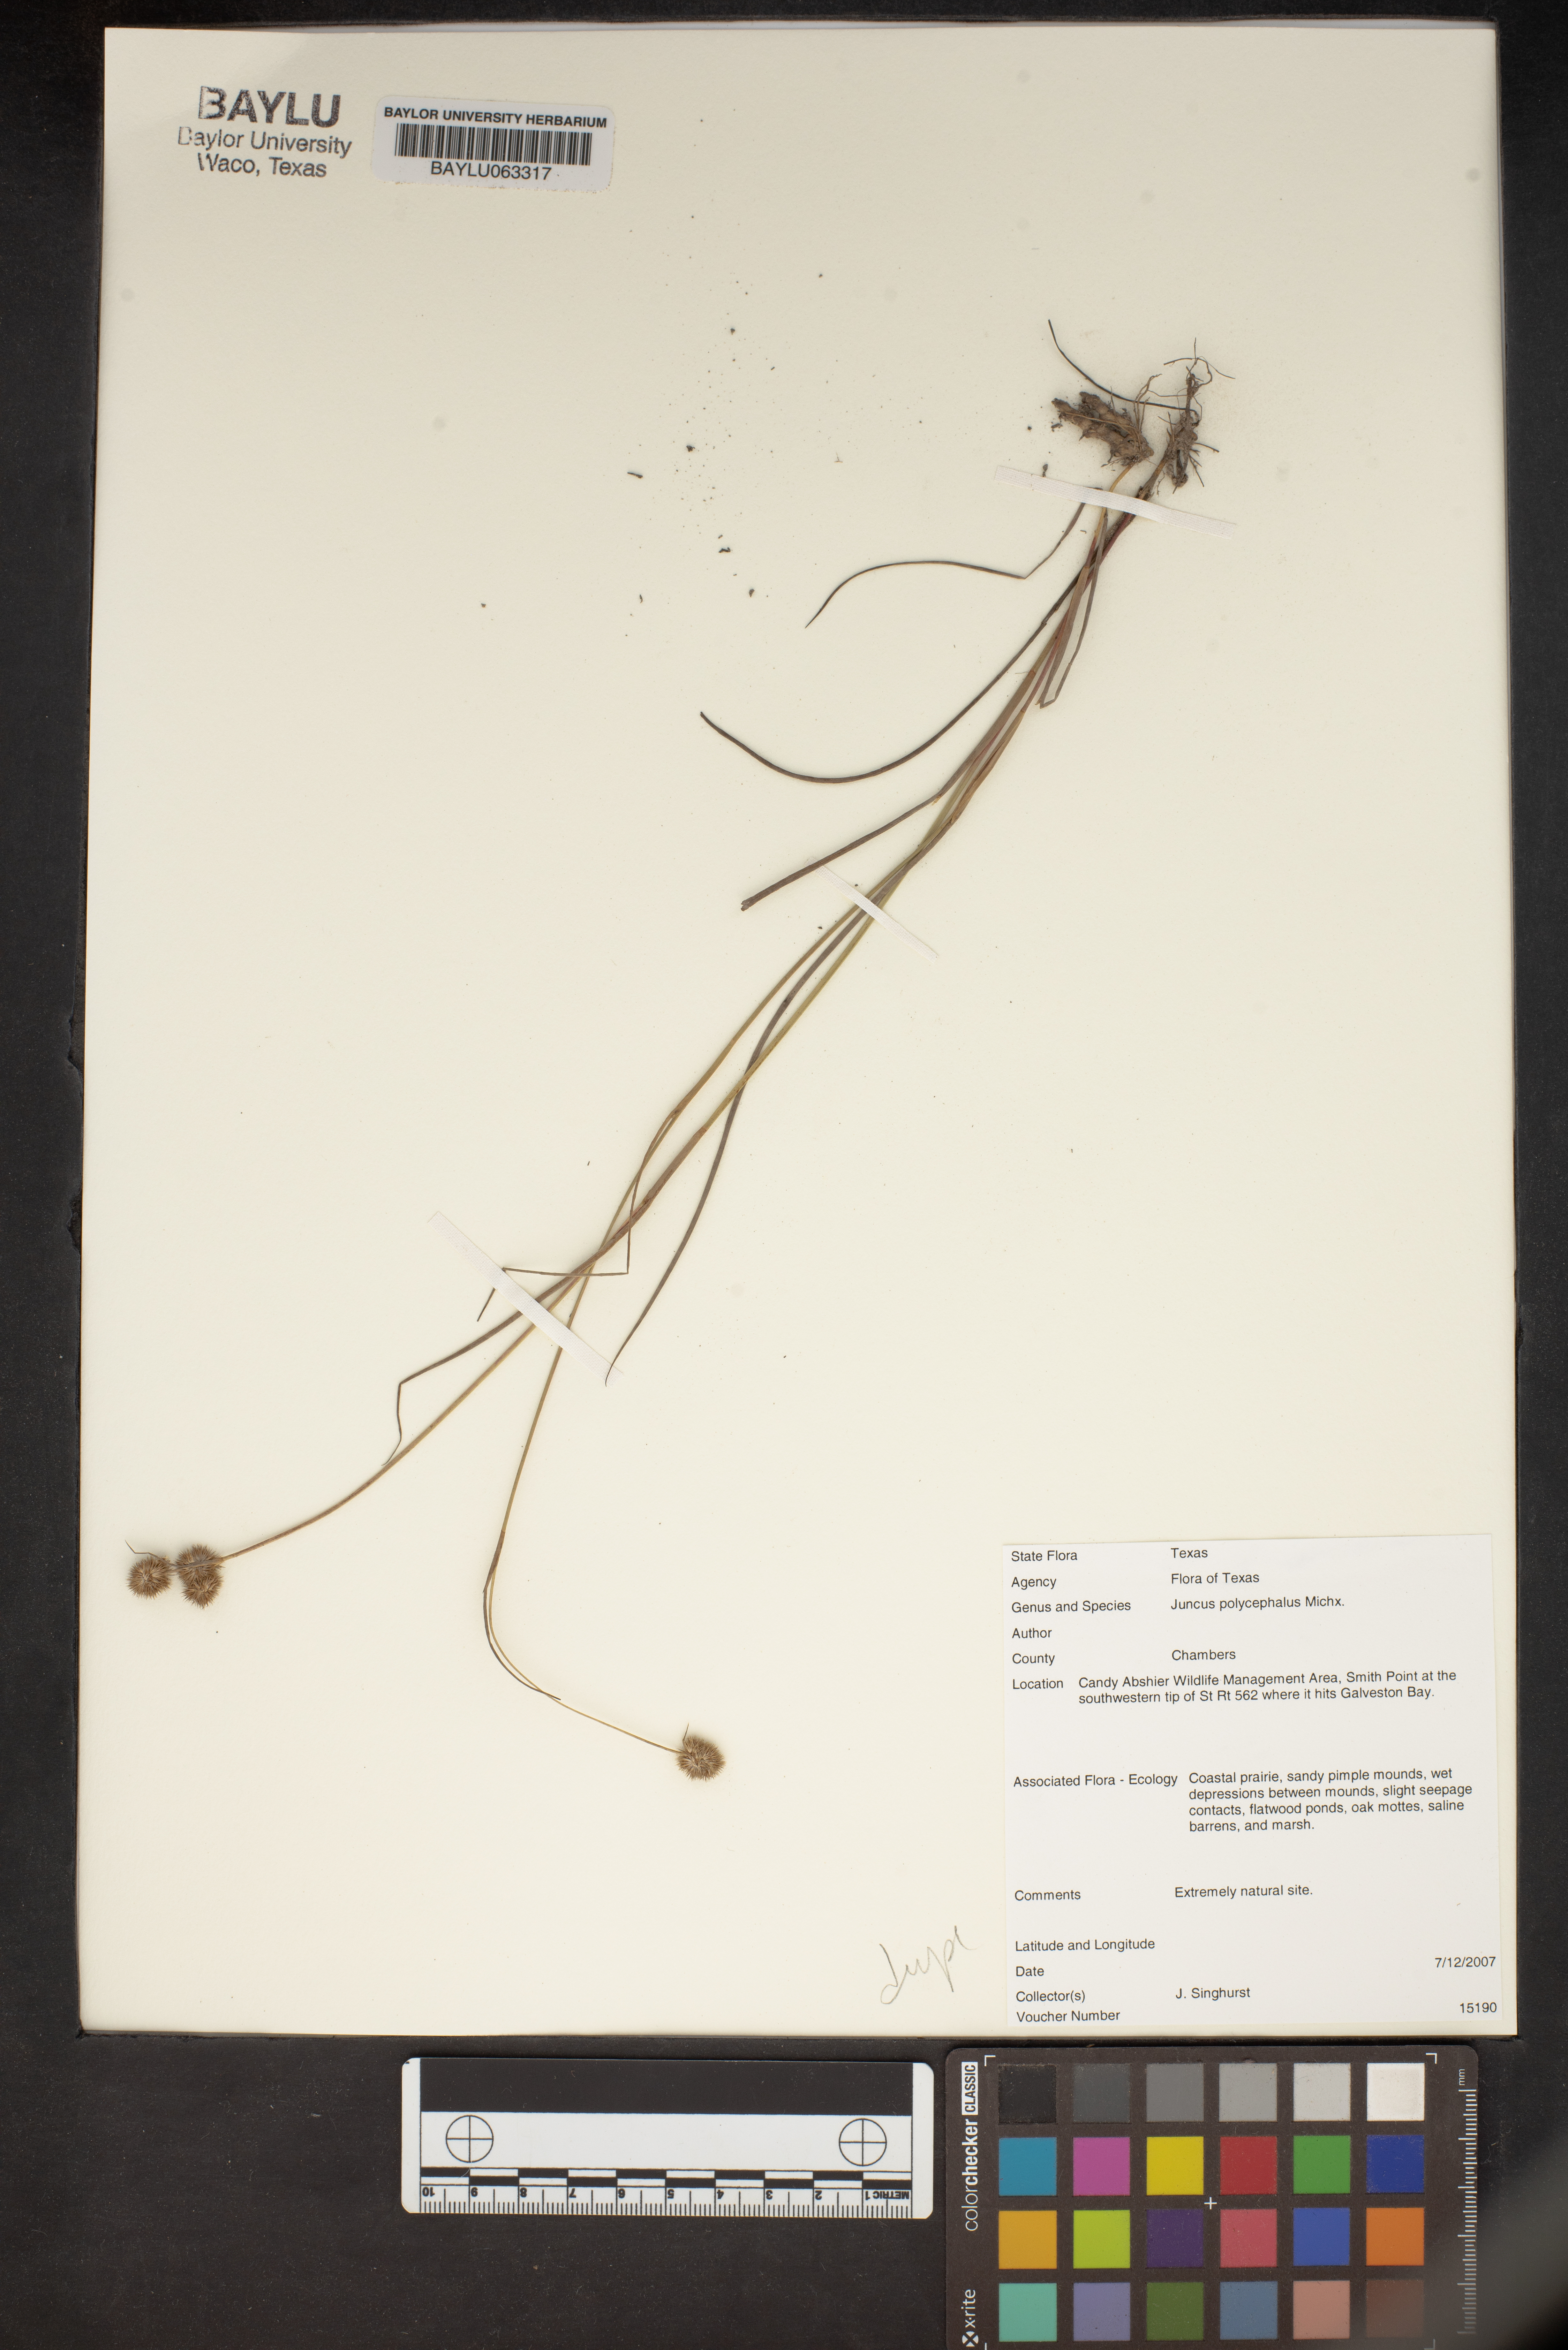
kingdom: Plantae
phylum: Tracheophyta
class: Liliopsida
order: Poales
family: Juncaceae
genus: Juncus
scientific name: Juncus polycephalus
